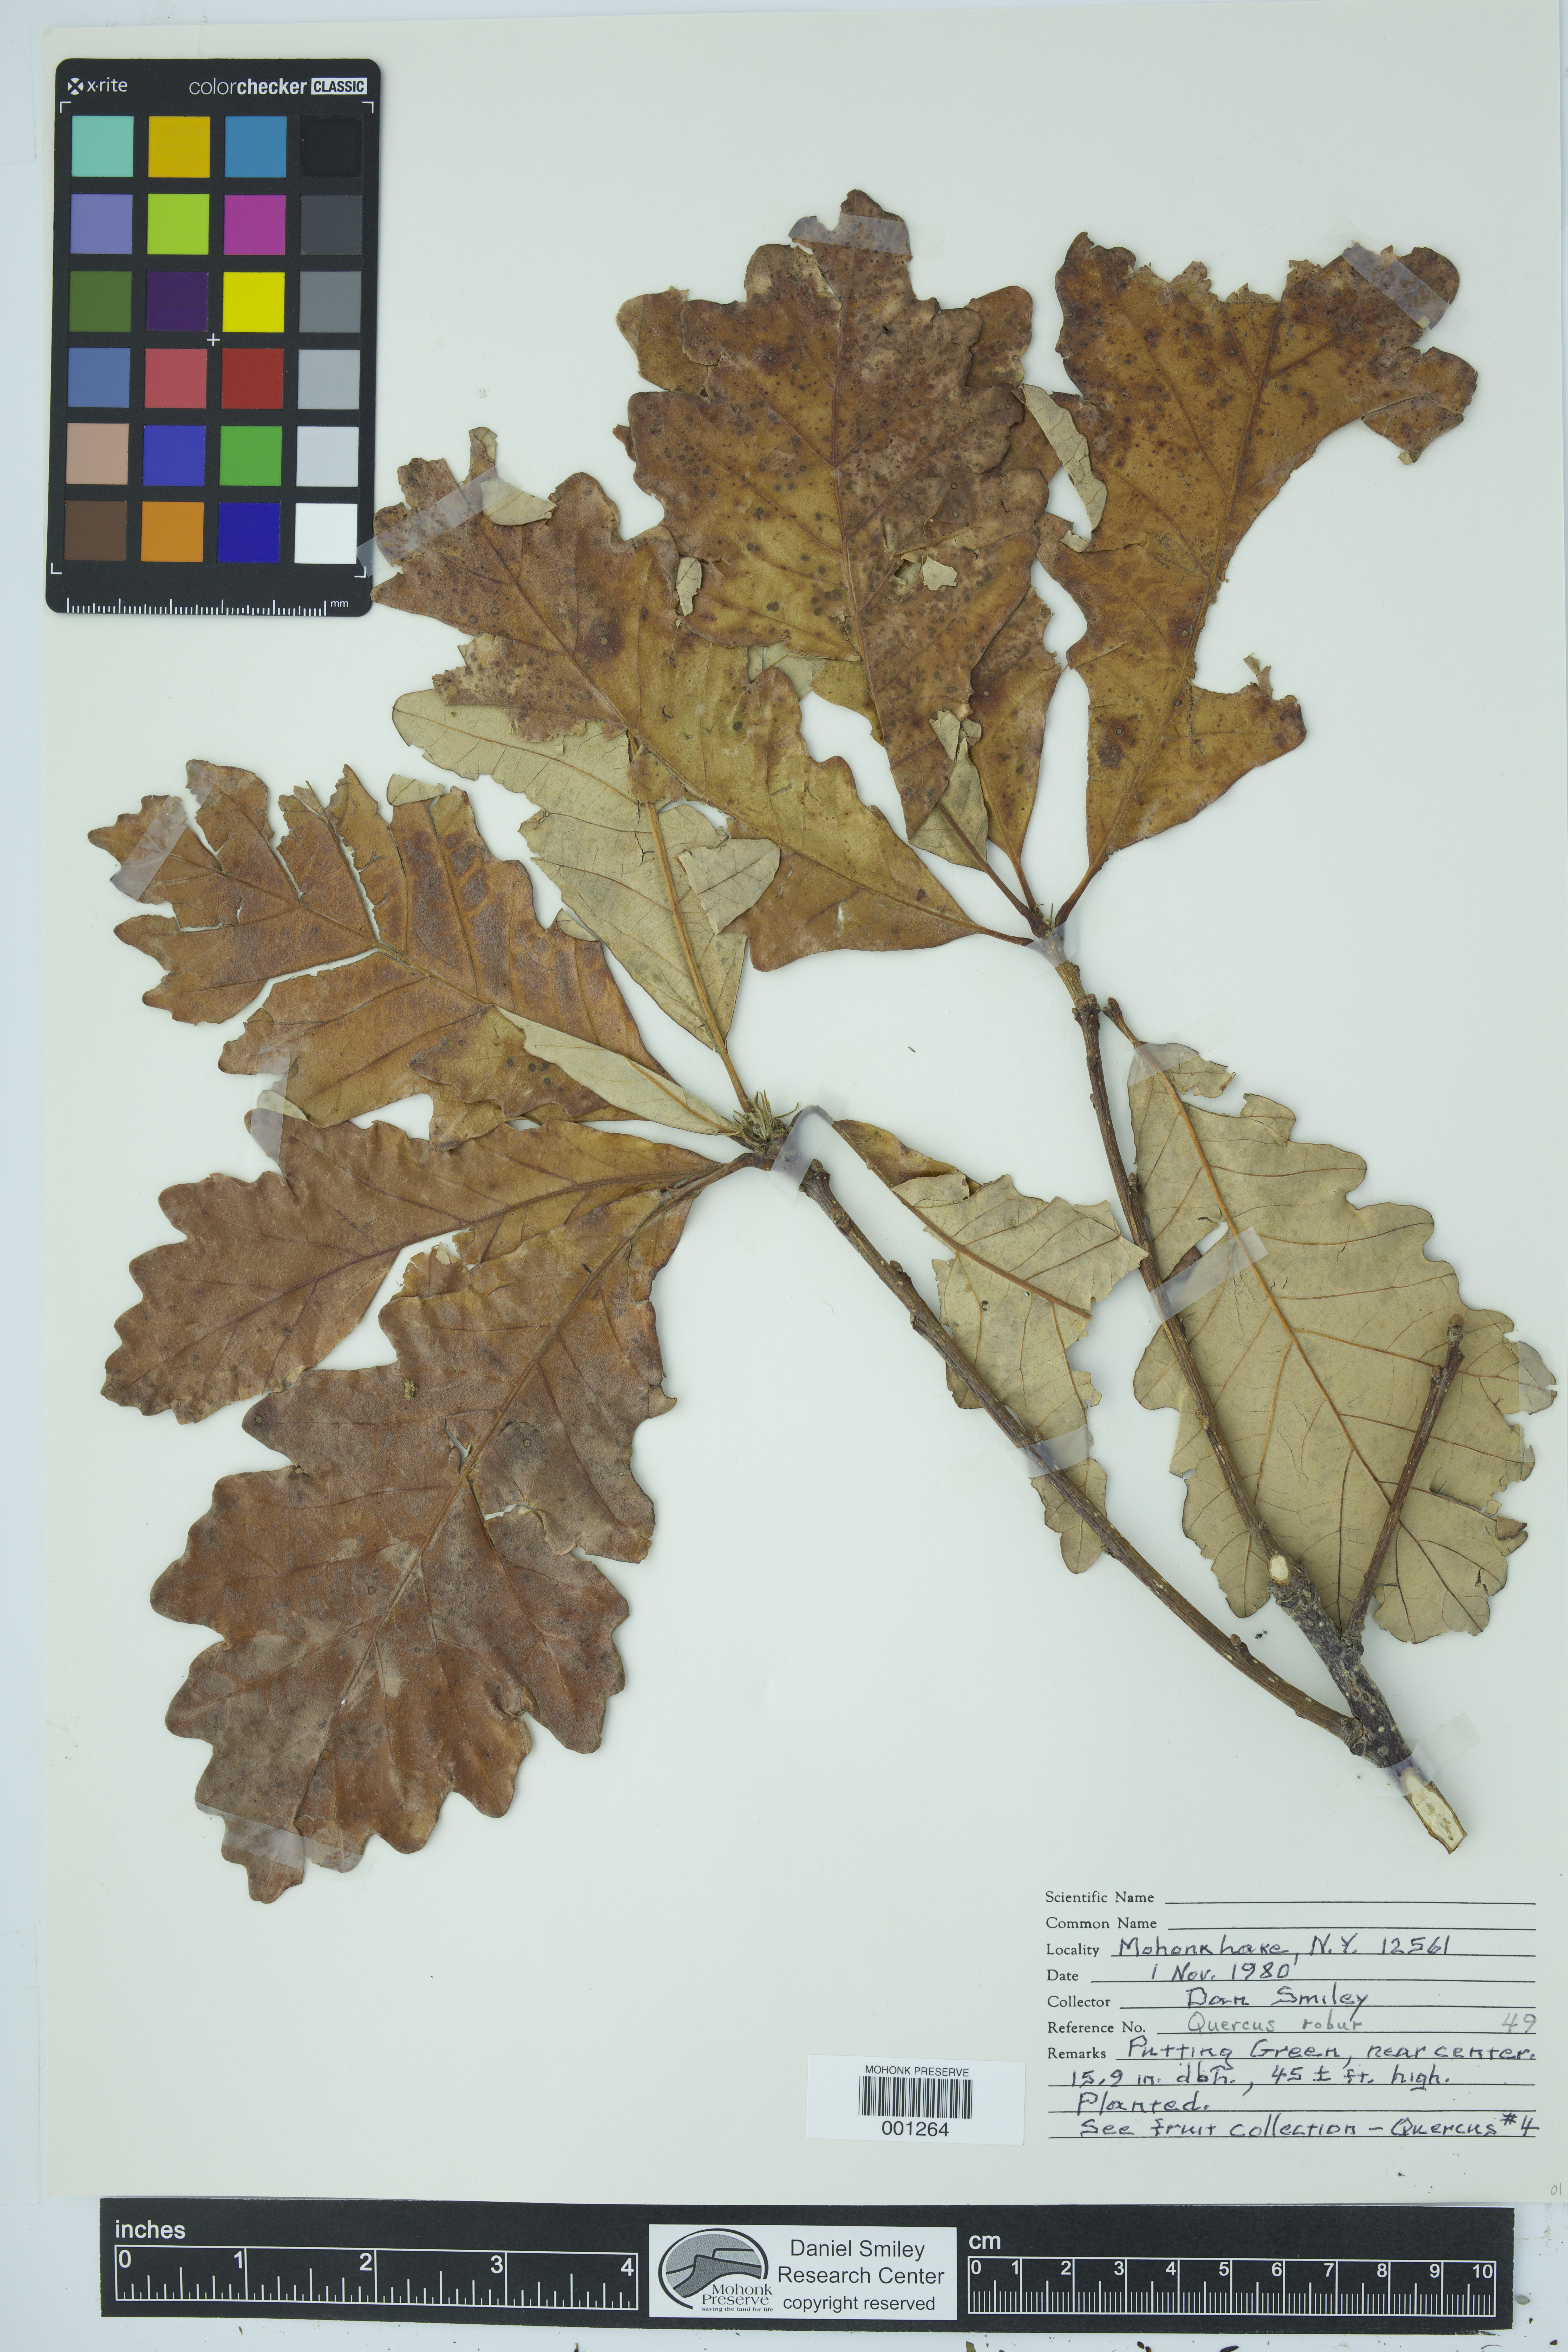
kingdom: Plantae
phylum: Tracheophyta
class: Magnoliopsida
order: Fagales
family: Fagaceae
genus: Quercus
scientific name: Quercus robur
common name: Pedunculate oak
